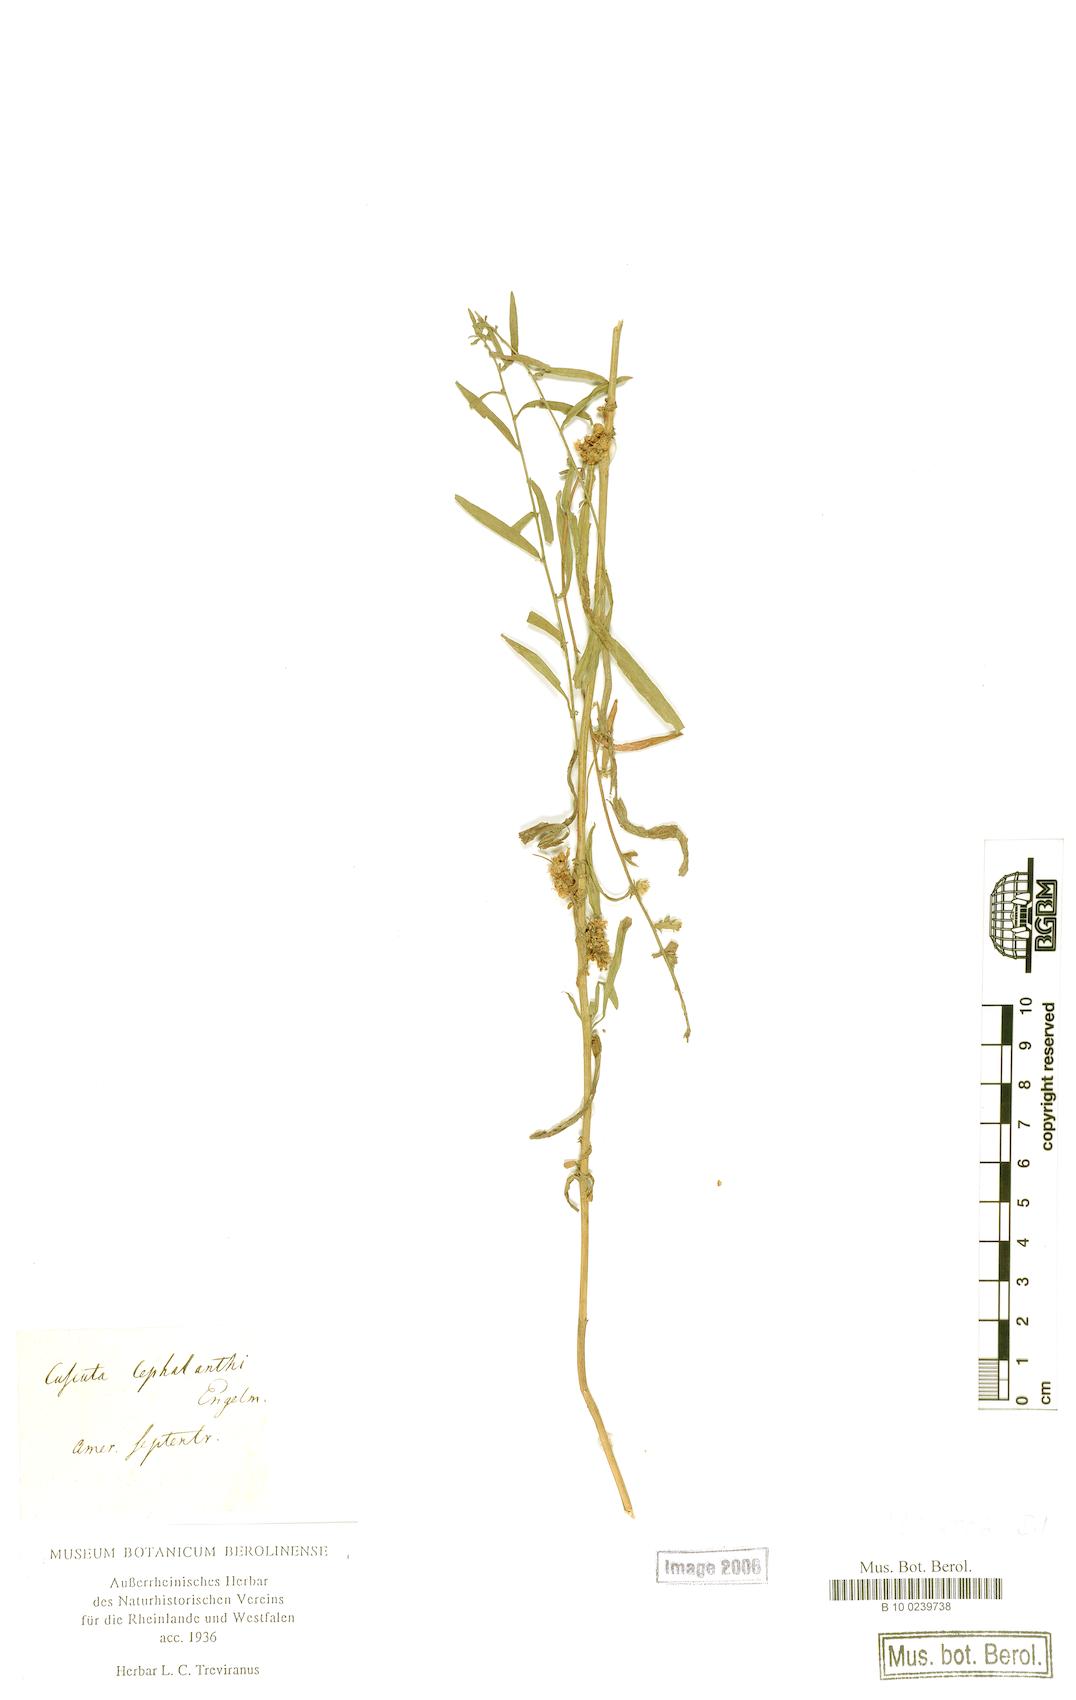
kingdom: Plantae
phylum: Tracheophyta
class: Magnoliopsida
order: Solanales
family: Convolvulaceae
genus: Cuscuta
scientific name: Cuscuta cephalanthi
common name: Button dodder
